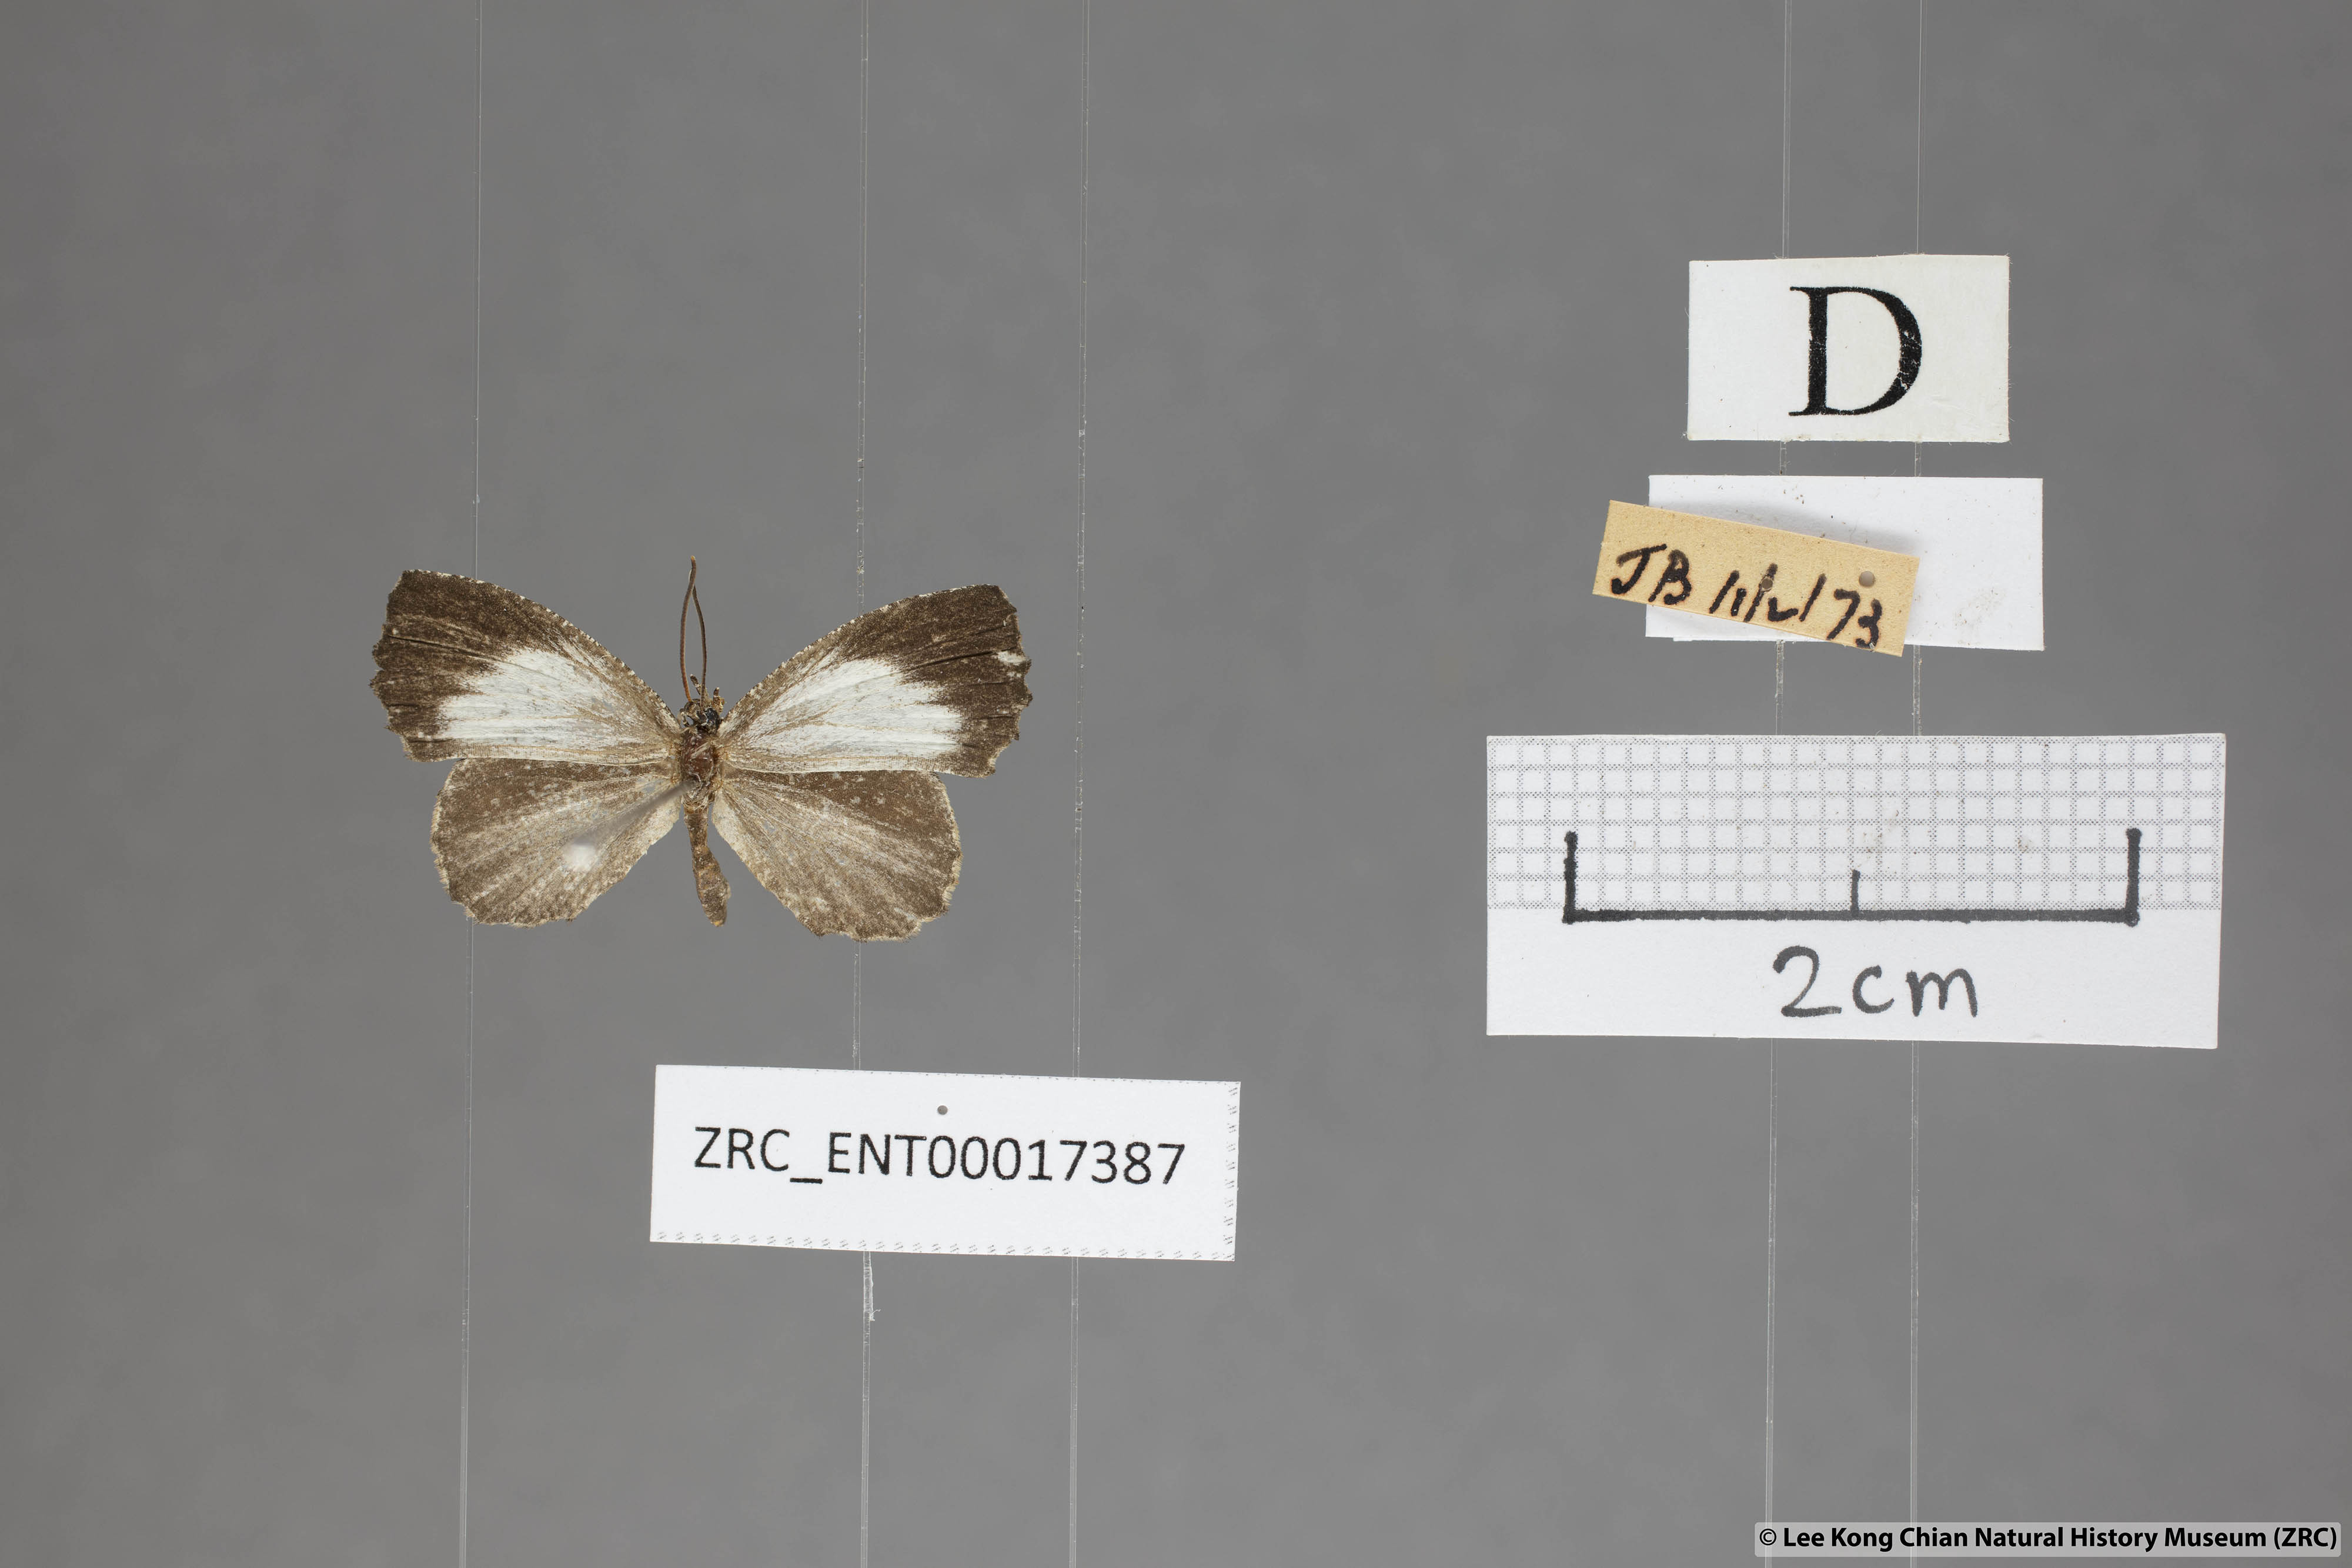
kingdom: Animalia
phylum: Arthropoda
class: Insecta
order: Lepidoptera
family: Lycaenidae
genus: Logania
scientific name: Logania marmorata
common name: Pale mottle
